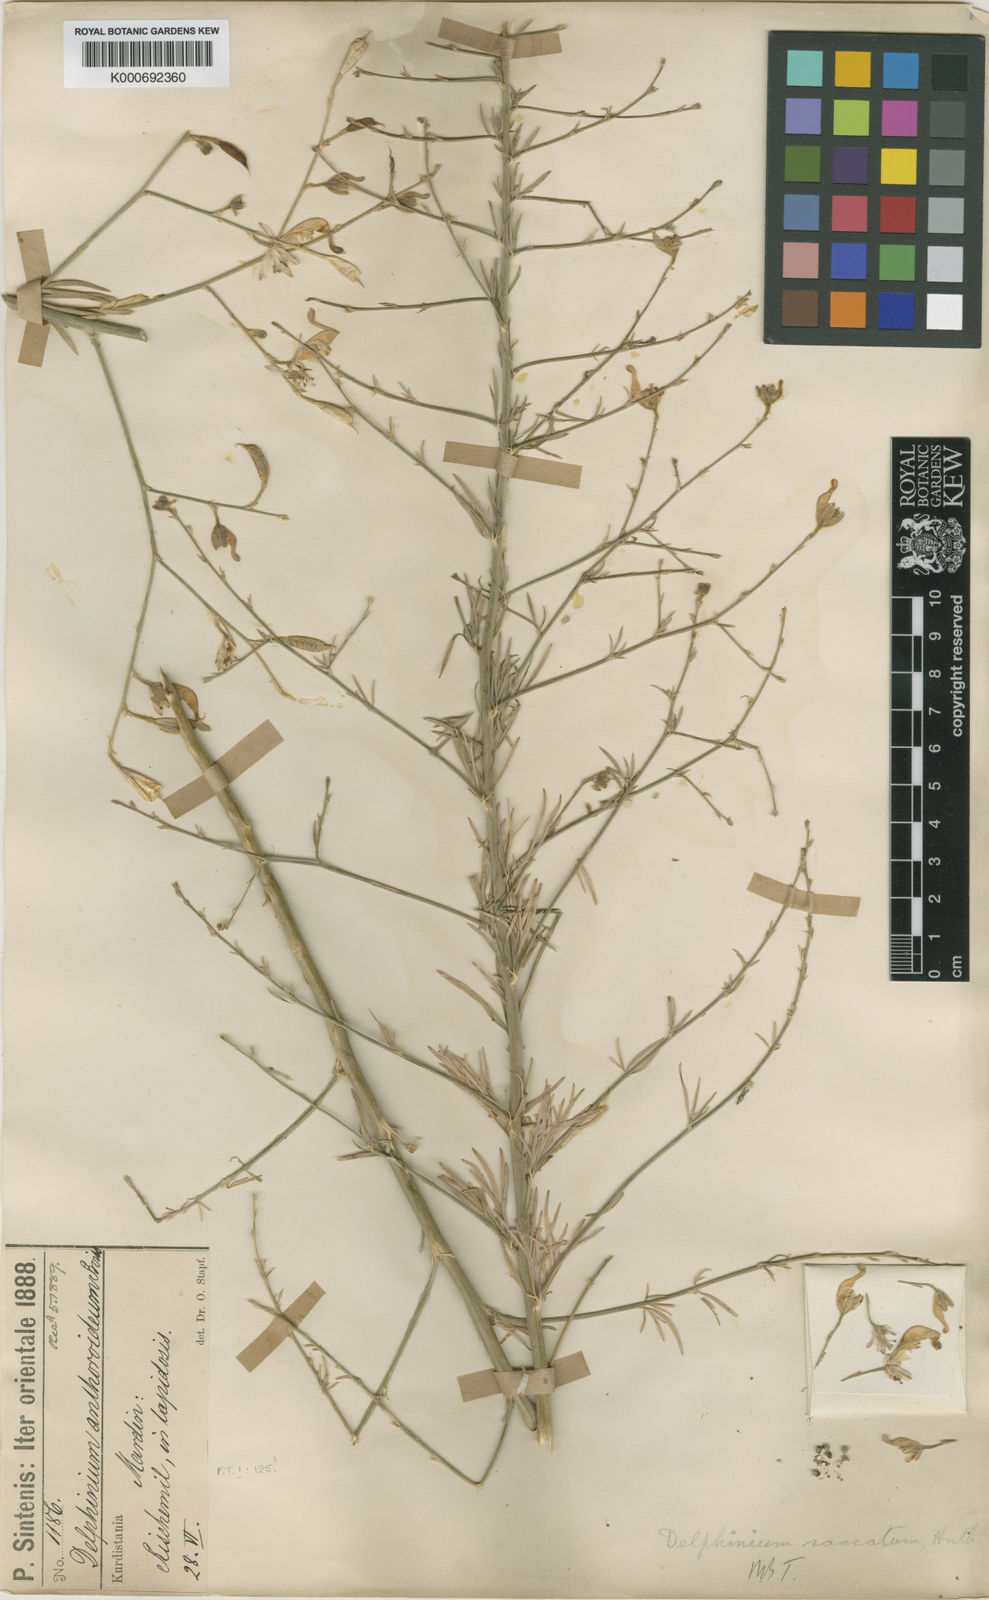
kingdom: Plantae
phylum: Tracheophyta
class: Magnoliopsida
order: Ranunculales
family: Ranunculaceae
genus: Delphinium
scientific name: Delphinium saccatum
